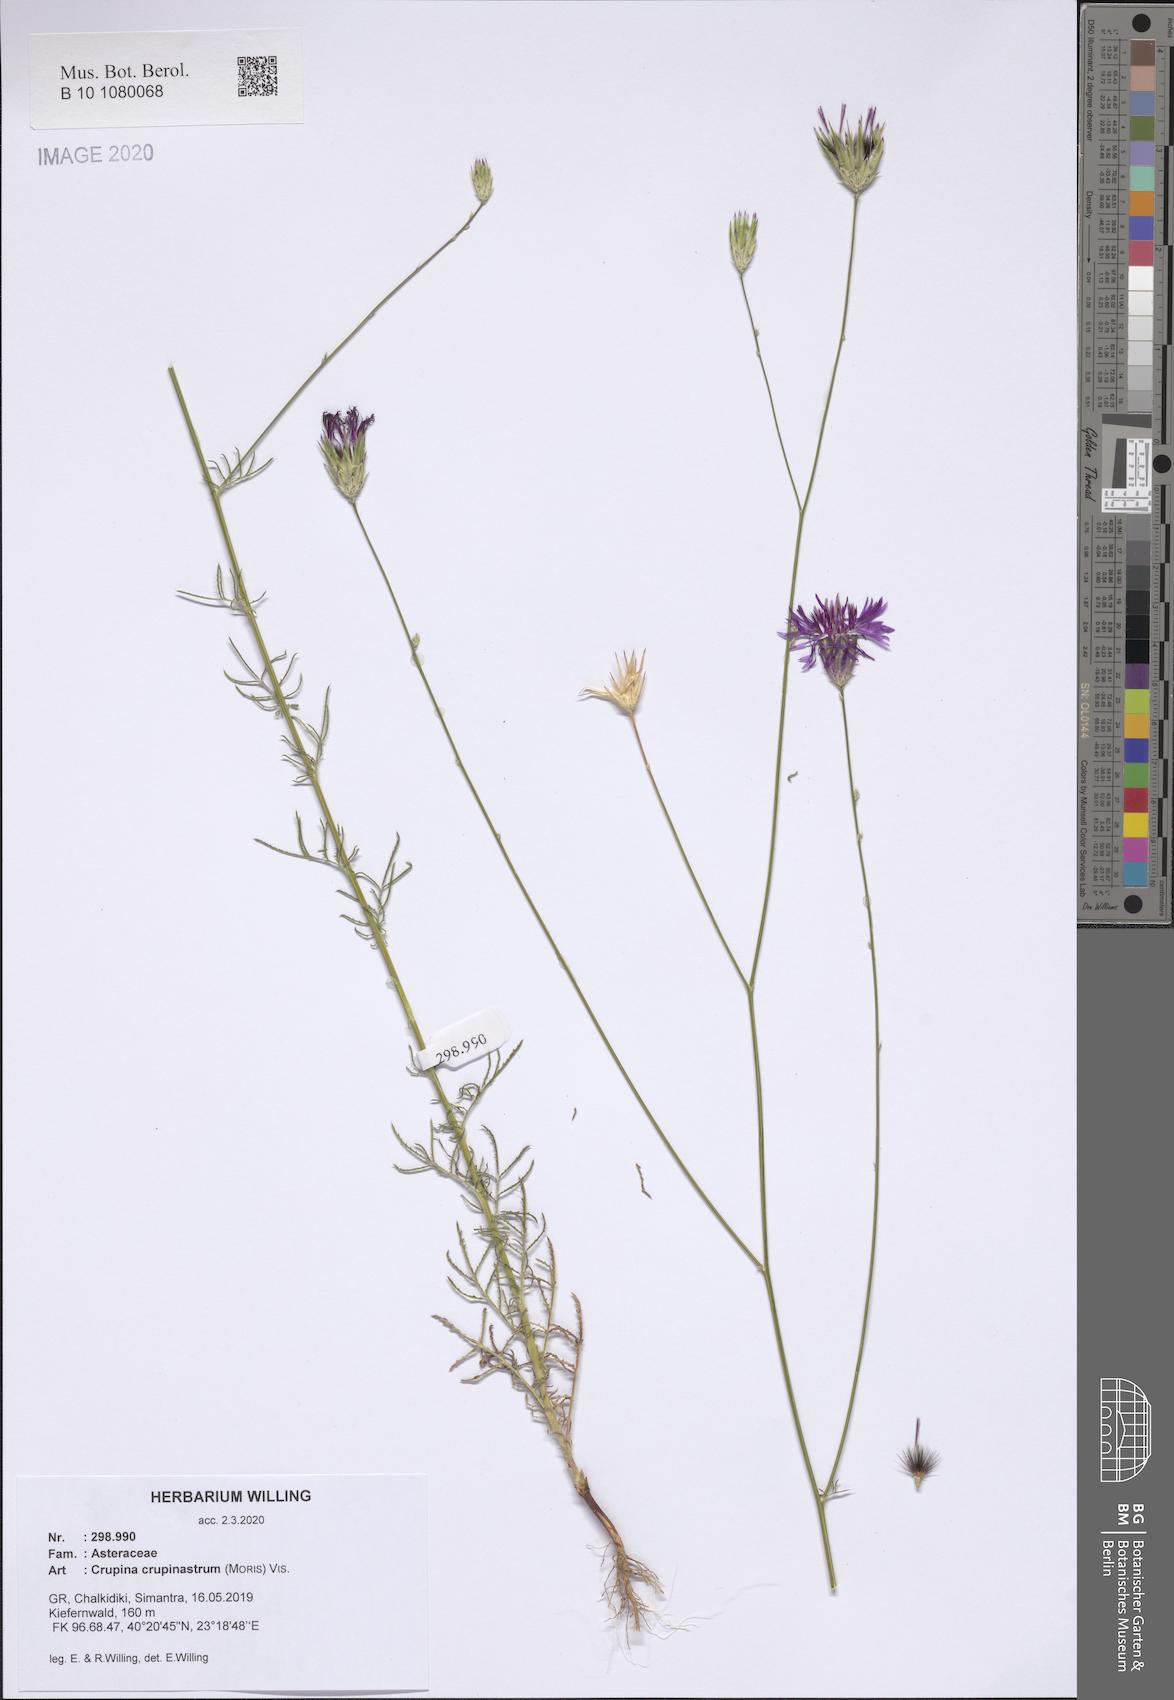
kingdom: Plantae
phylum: Tracheophyta
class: Magnoliopsida
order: Asterales
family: Asteraceae
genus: Crupina
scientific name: Crupina crupinastrum
